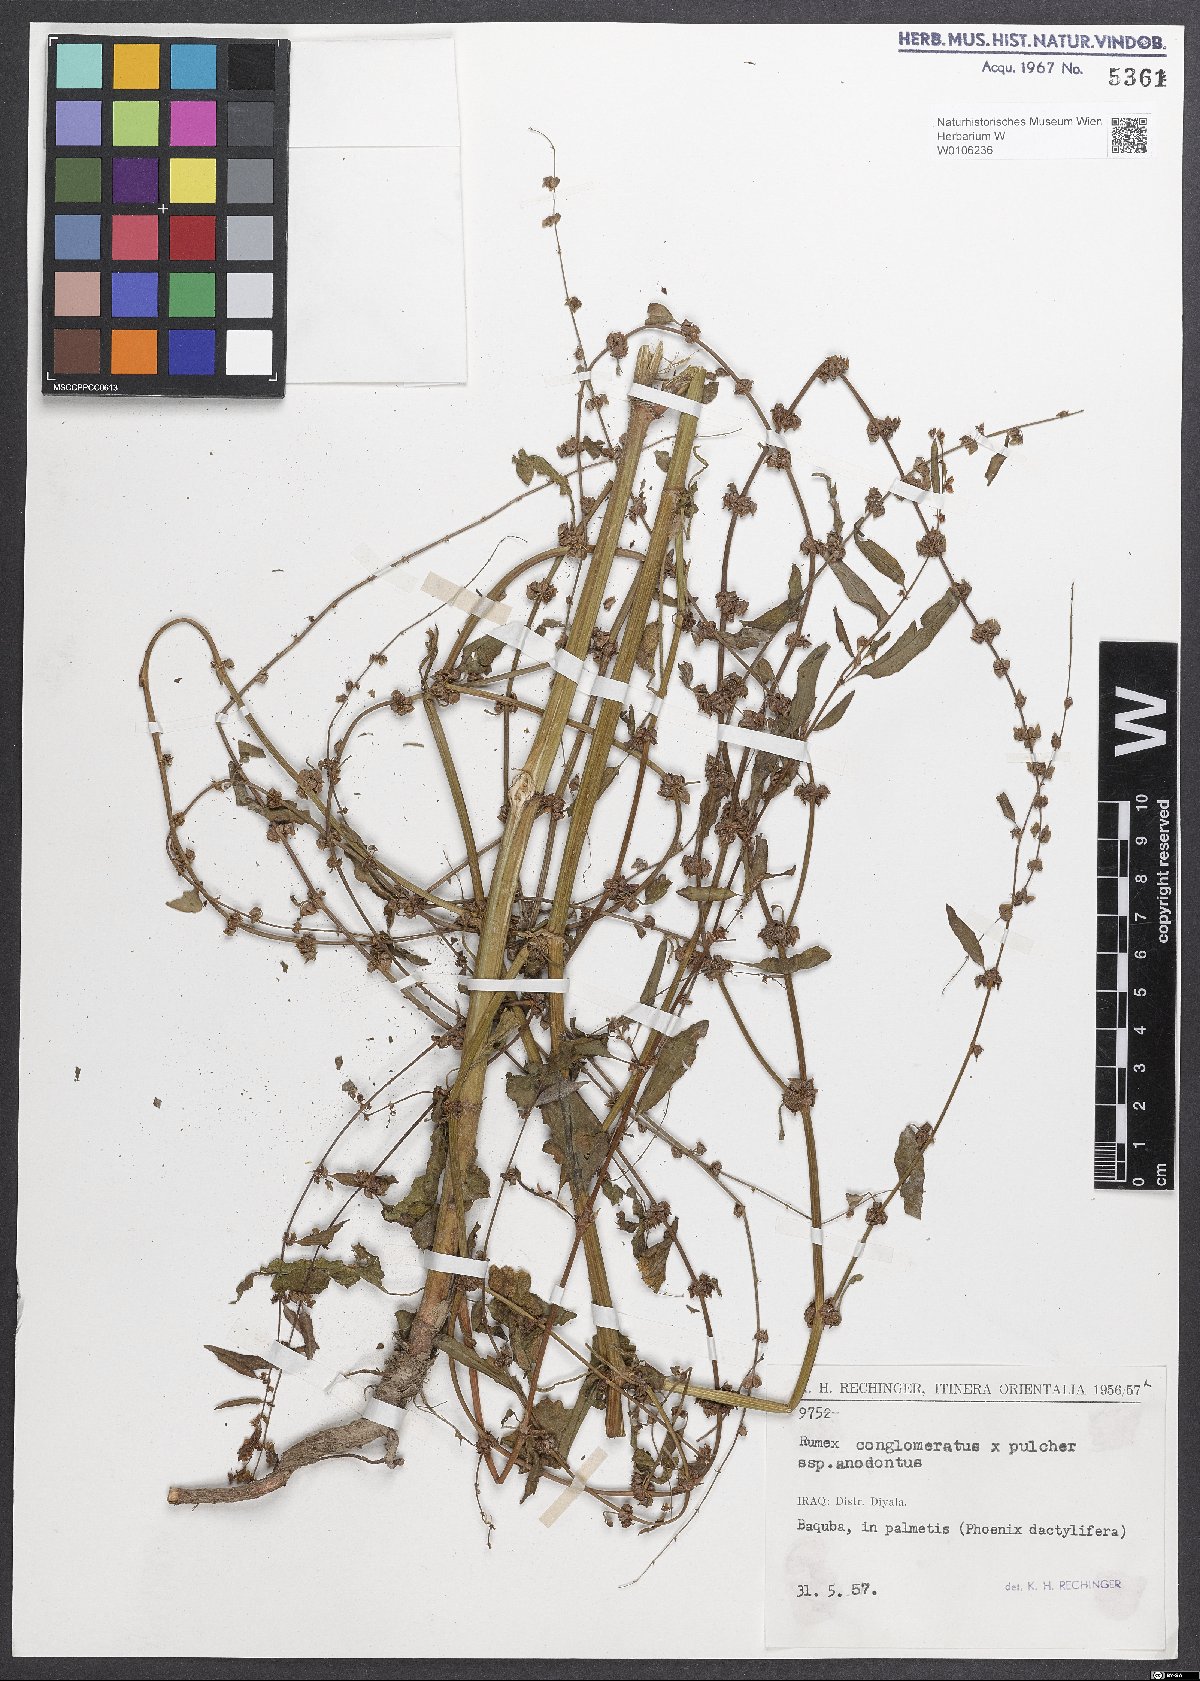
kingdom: Plantae
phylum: Tracheophyta
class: Magnoliopsida
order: Caryophyllales
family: Polygonaceae
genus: Rumex
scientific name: Rumex
